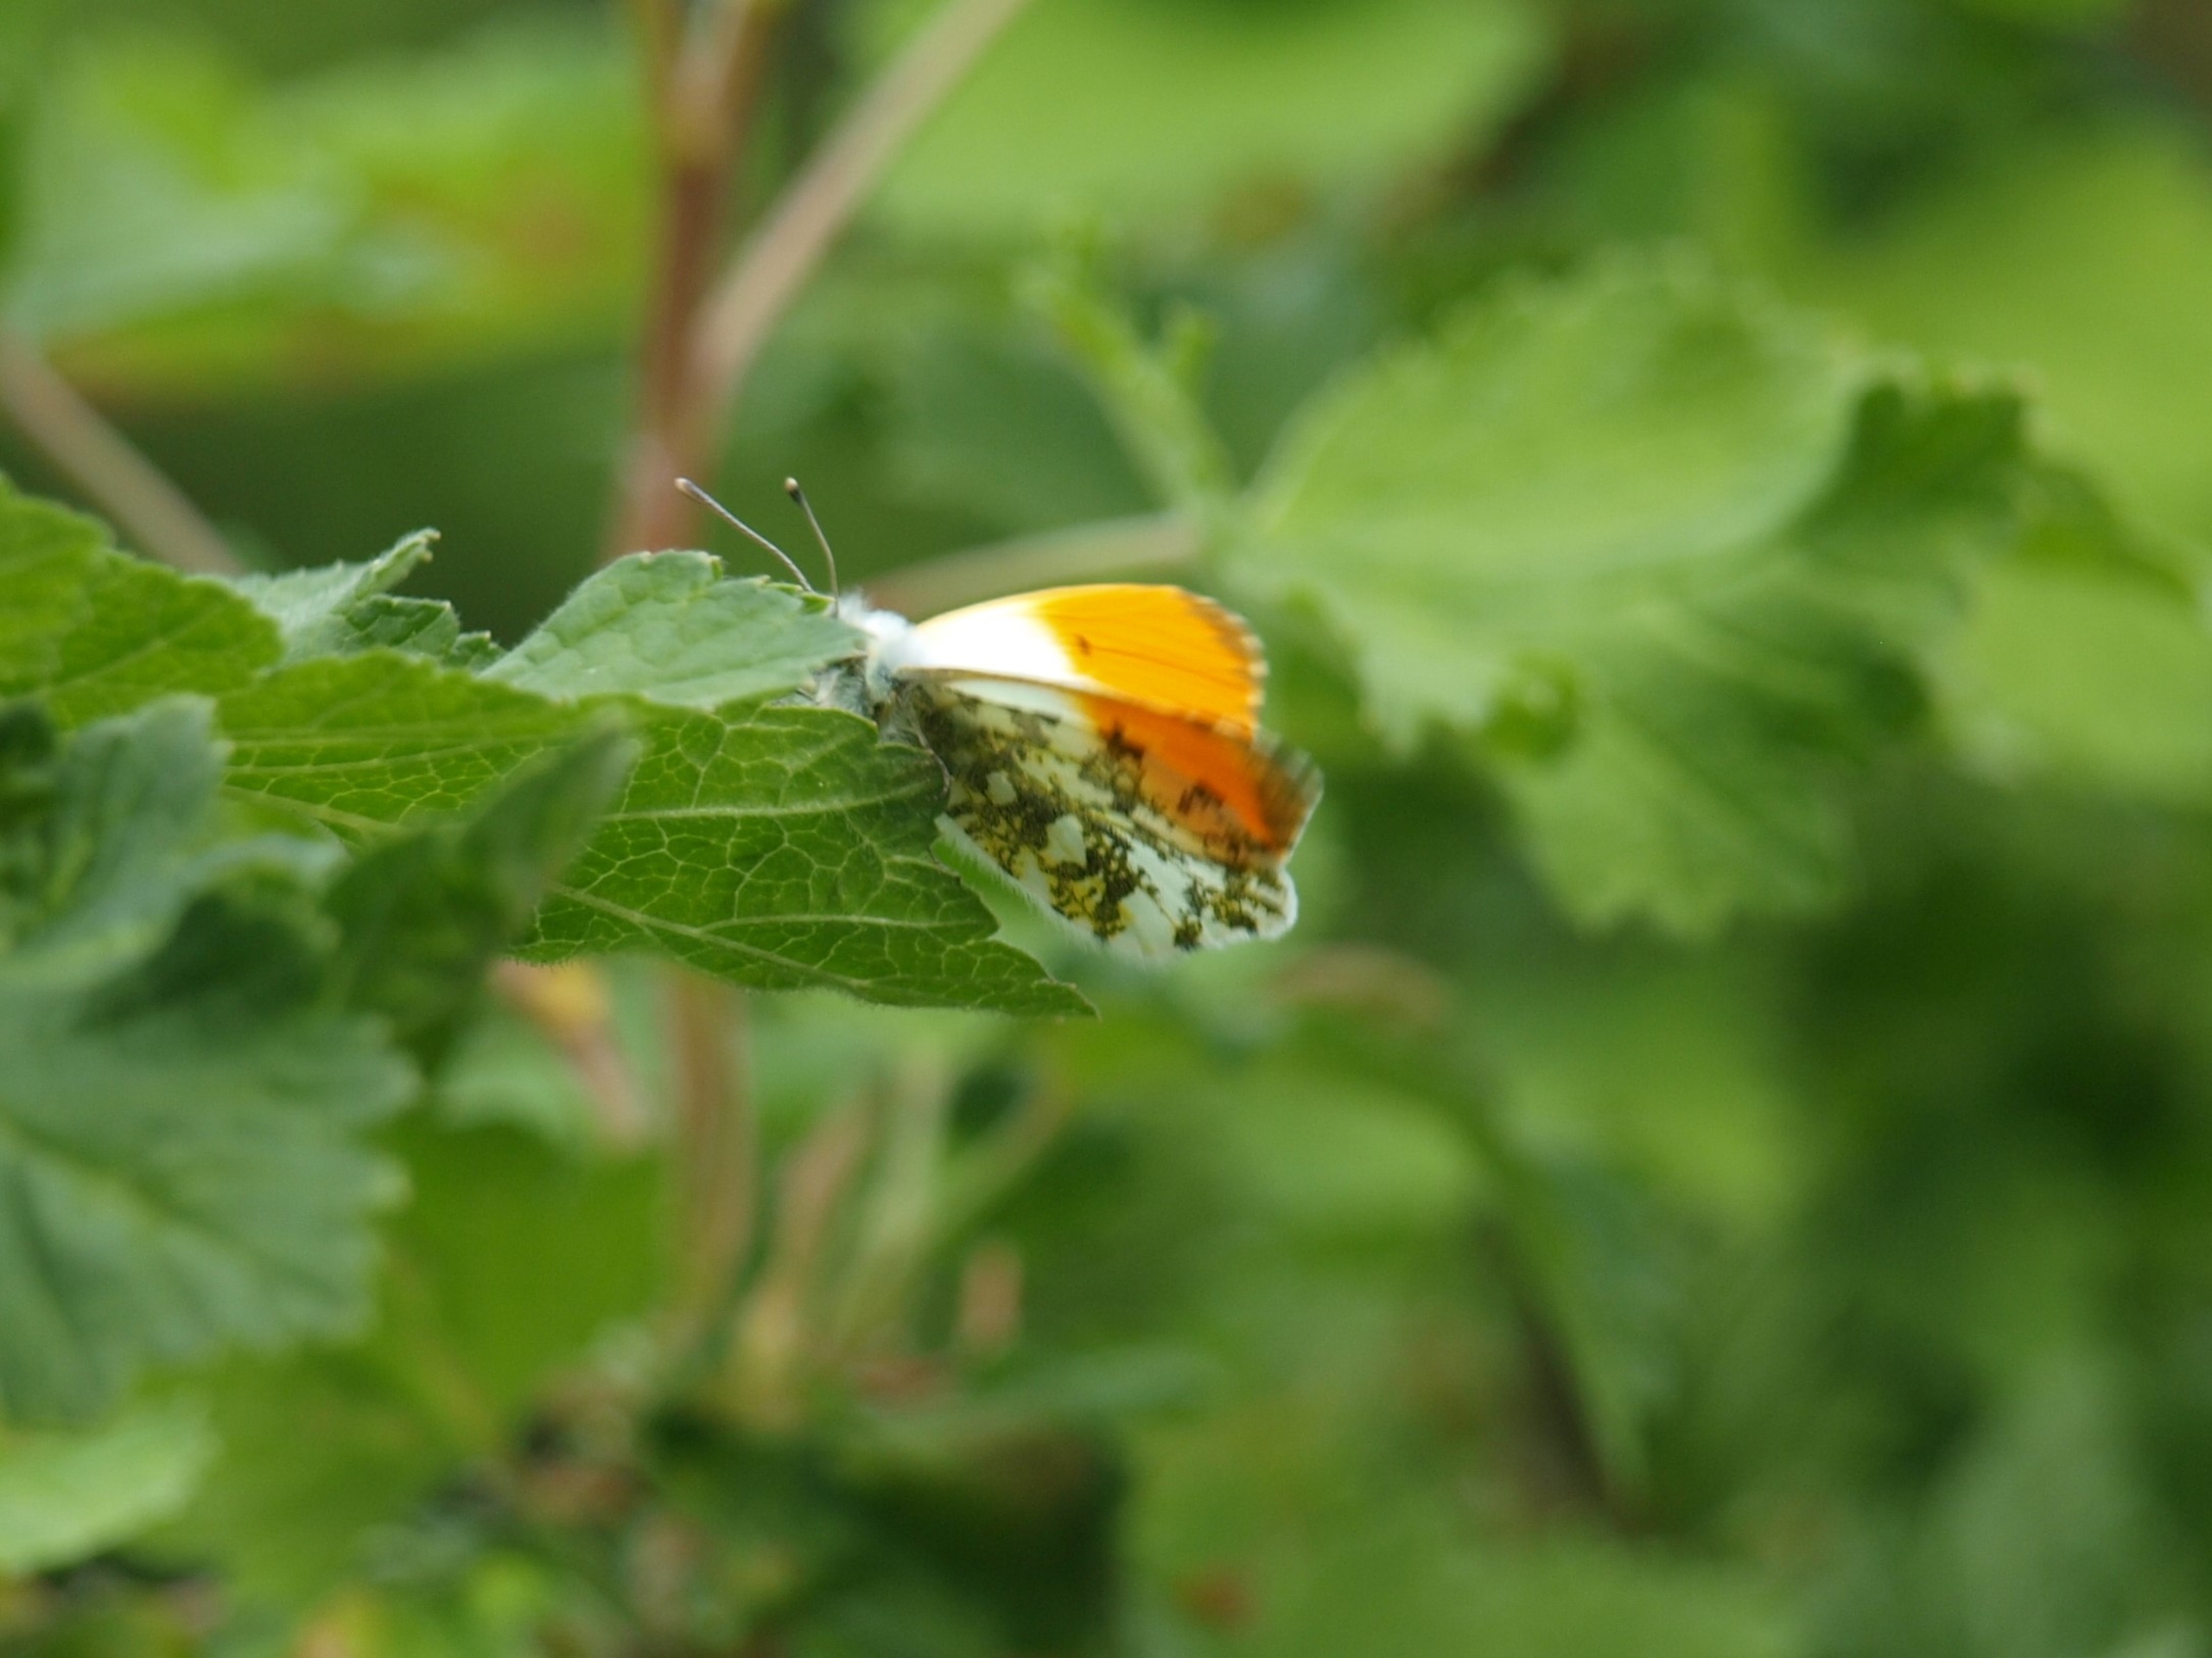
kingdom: Animalia
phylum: Arthropoda
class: Insecta
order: Lepidoptera
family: Pieridae
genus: Anthocharis
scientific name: Anthocharis cardamines
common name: Aurora
